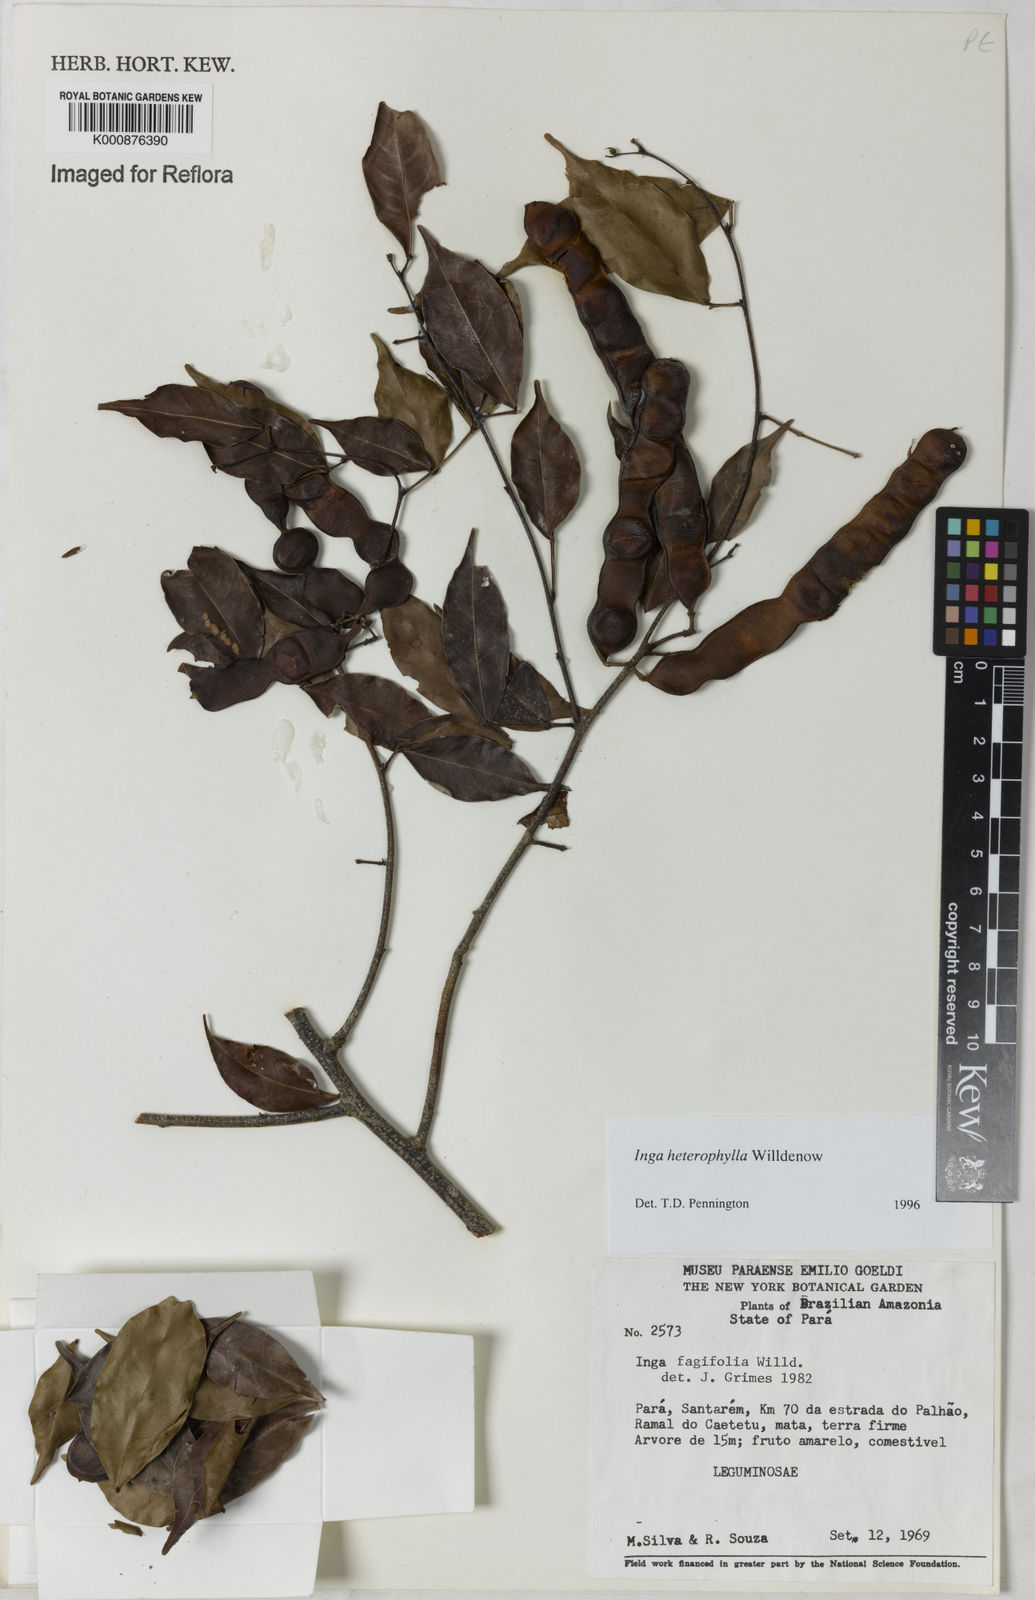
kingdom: Plantae
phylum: Tracheophyta
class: Magnoliopsida
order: Fabales
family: Fabaceae
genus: Inga
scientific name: Inga heterophylla
